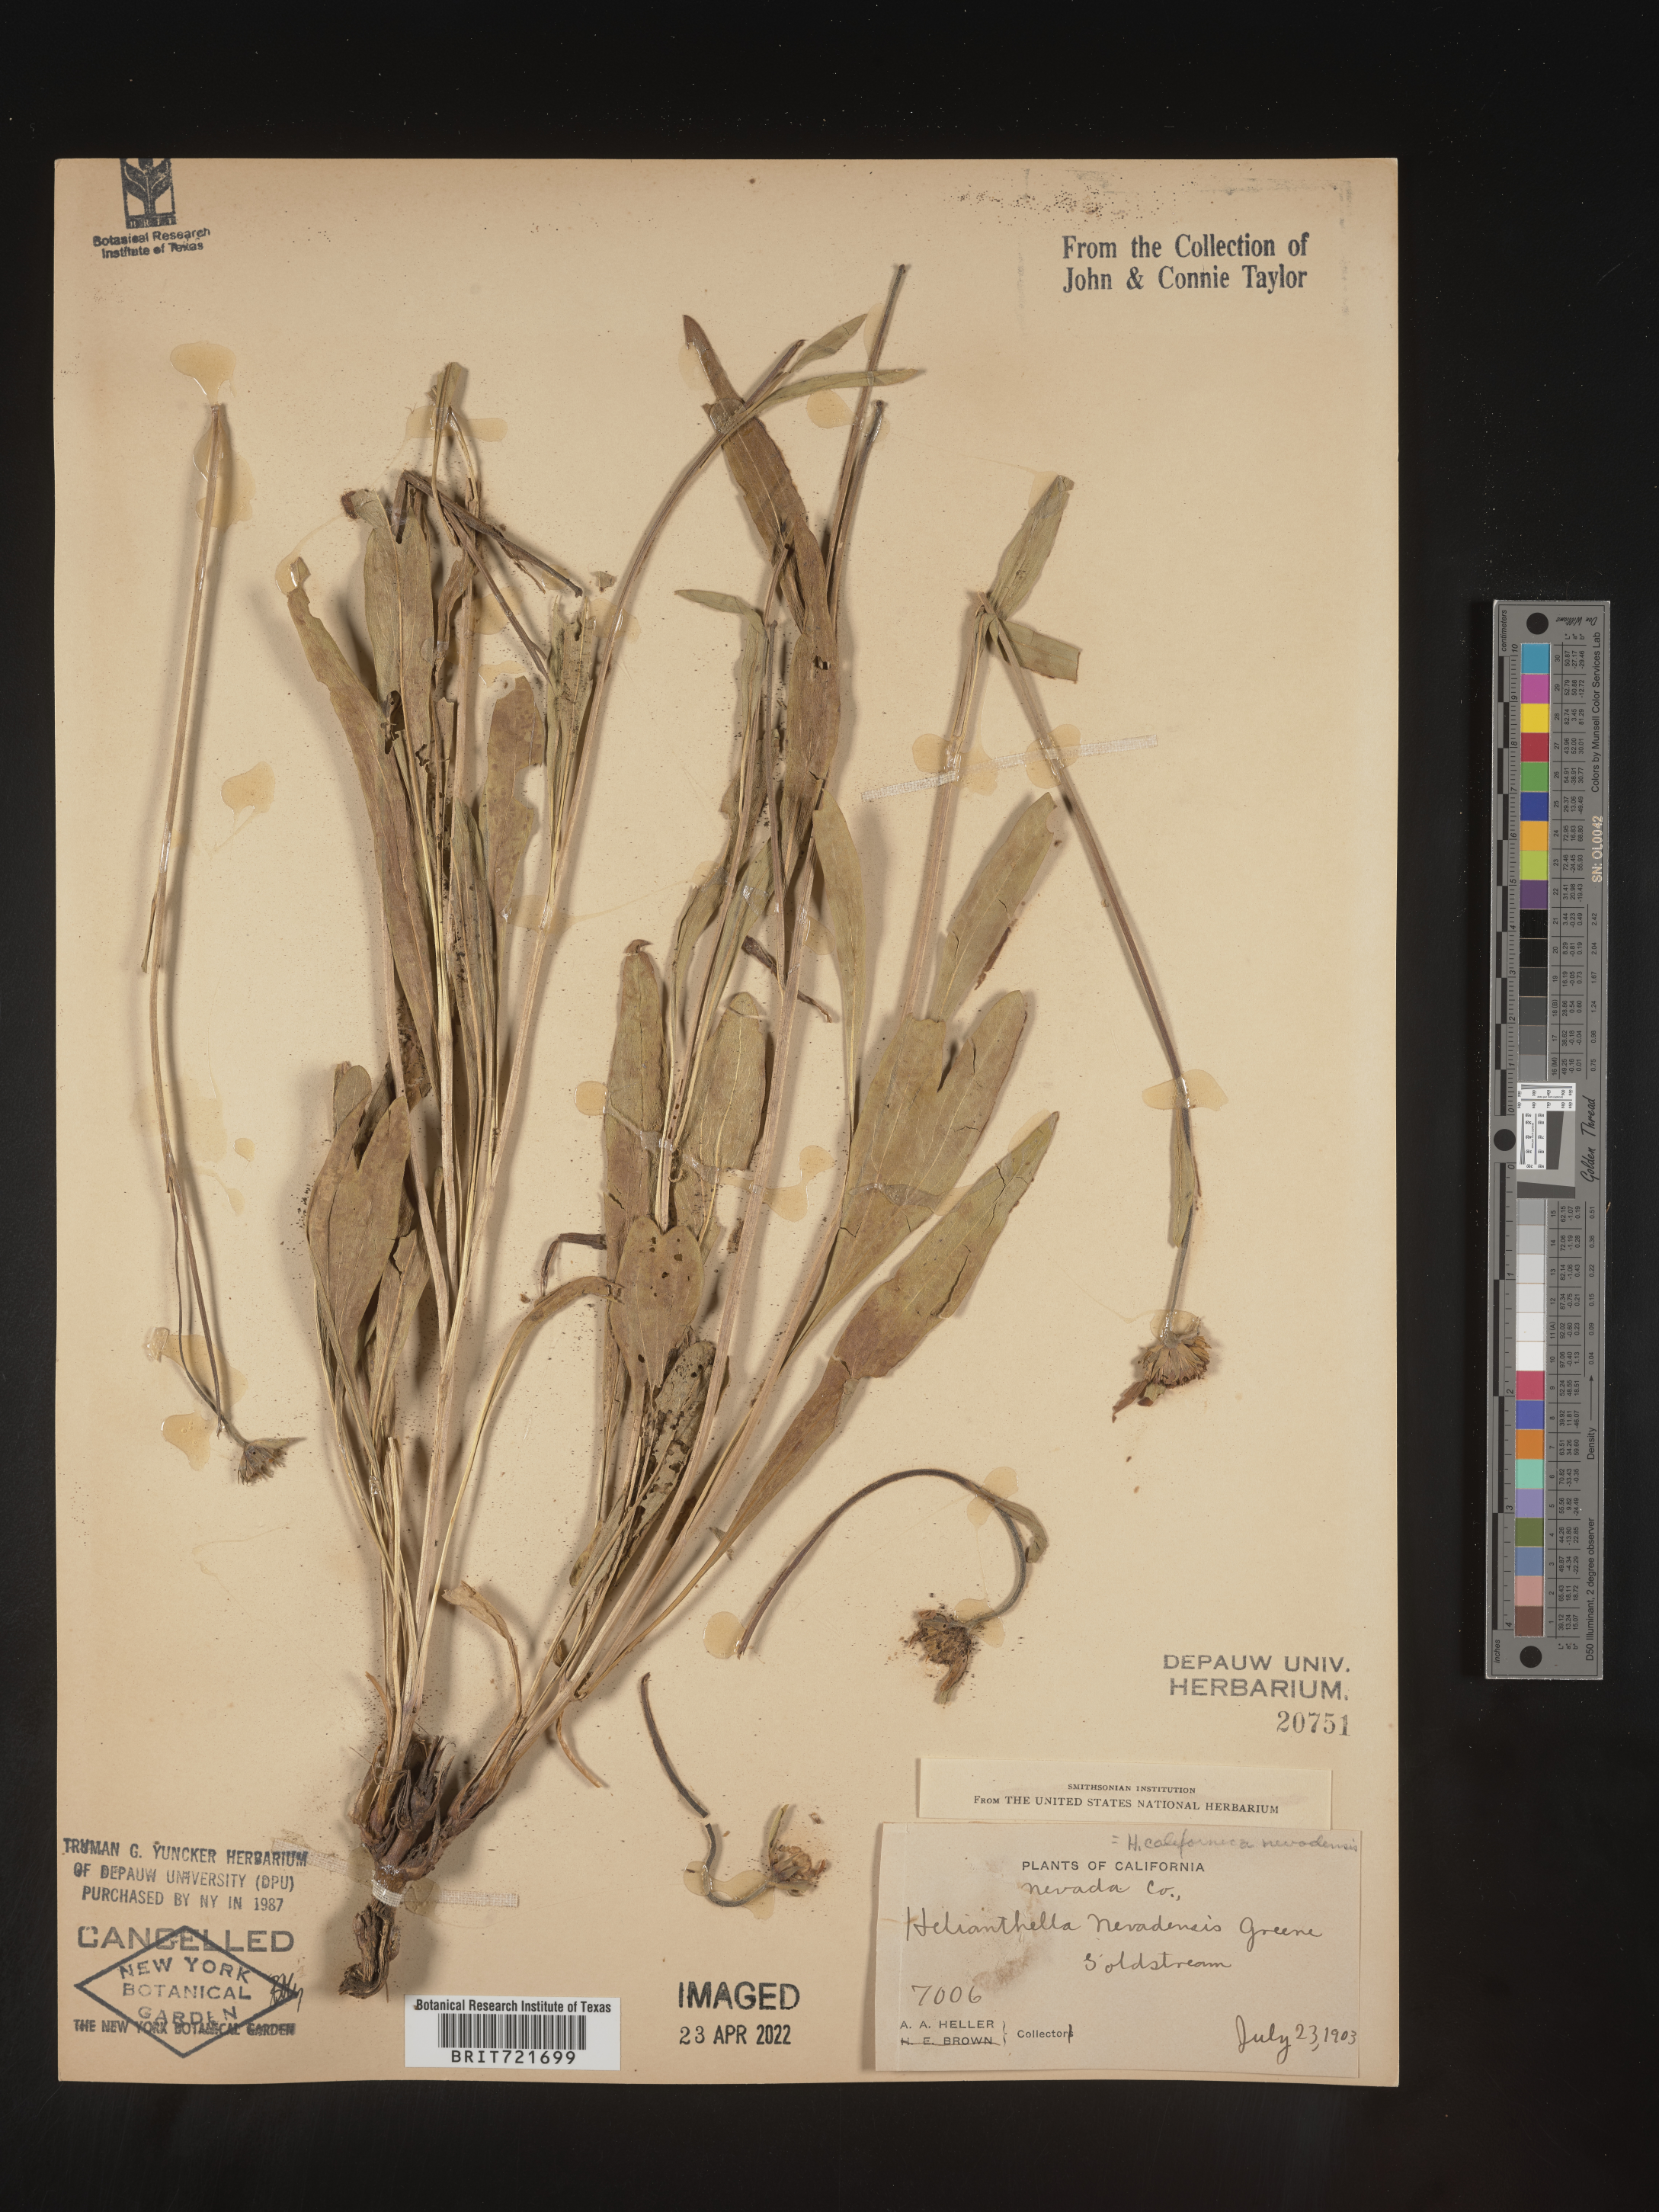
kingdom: Plantae
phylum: Tracheophyta
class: Magnoliopsida
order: Asterales
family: Asteraceae
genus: Helianthella
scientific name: Helianthella californica
